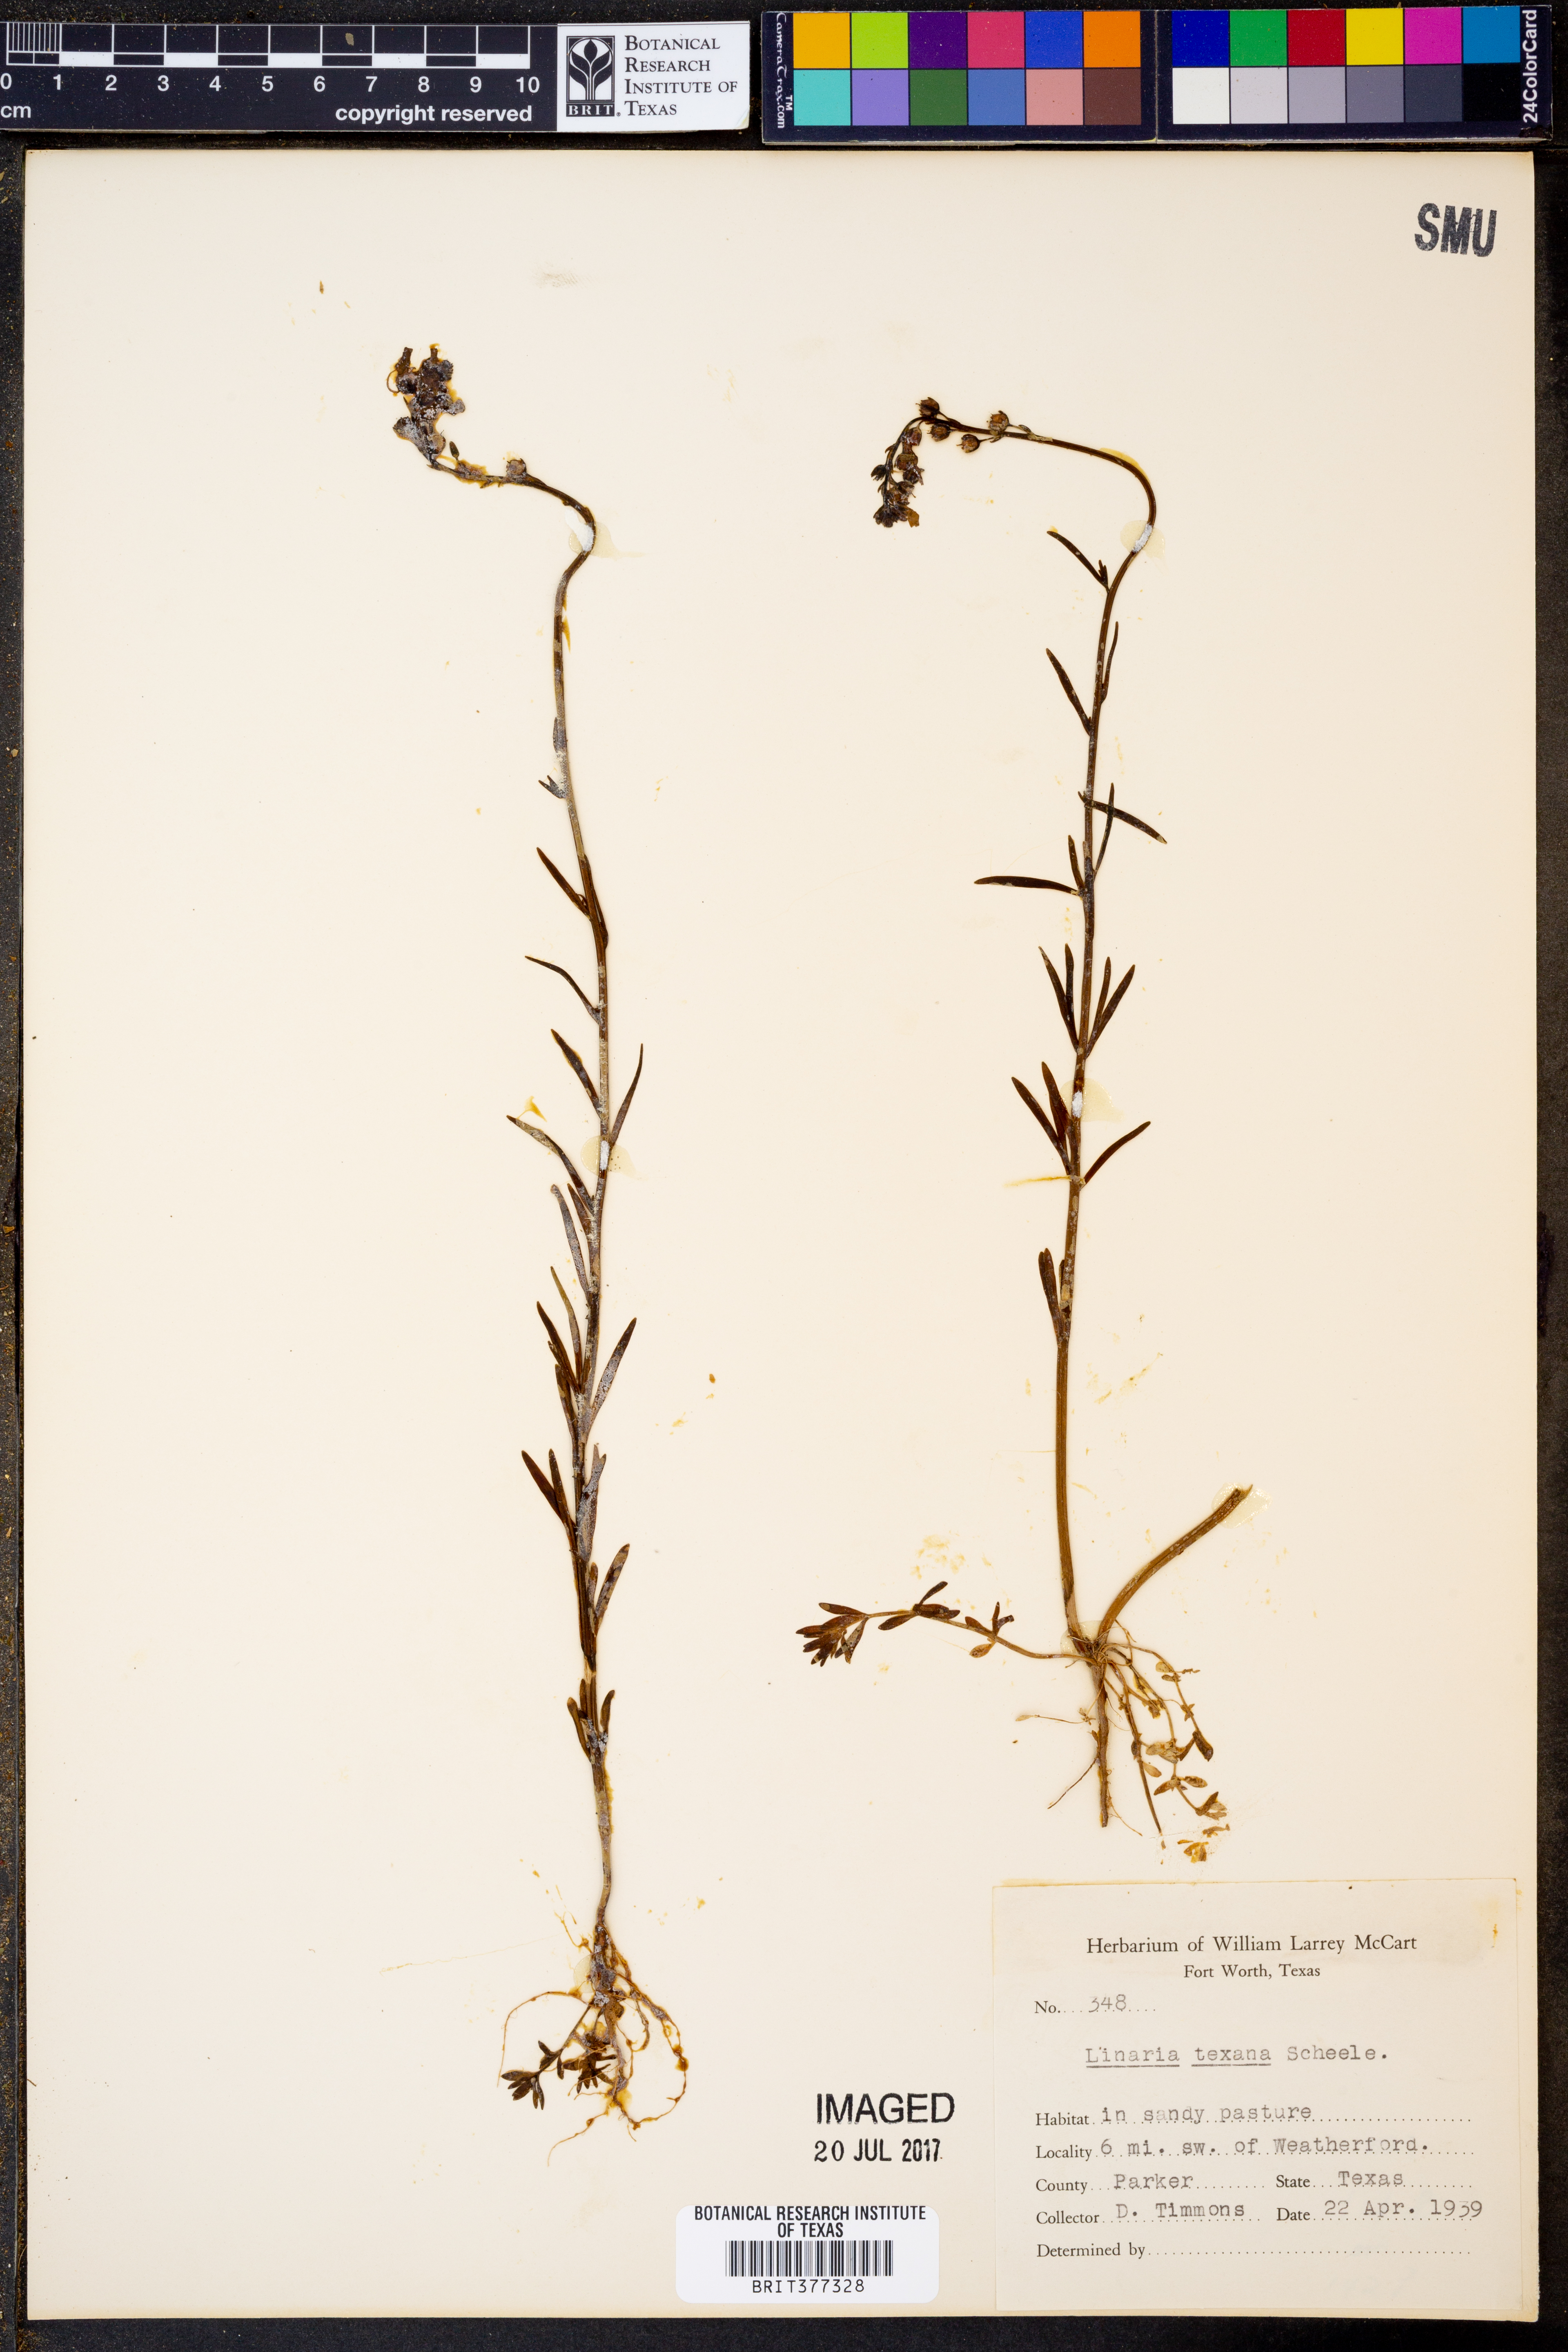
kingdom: Plantae
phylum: Tracheophyta
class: Magnoliopsida
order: Lamiales
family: Plantaginaceae
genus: Nuttallanthus
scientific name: Nuttallanthus texanus
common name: Texas toadflax
